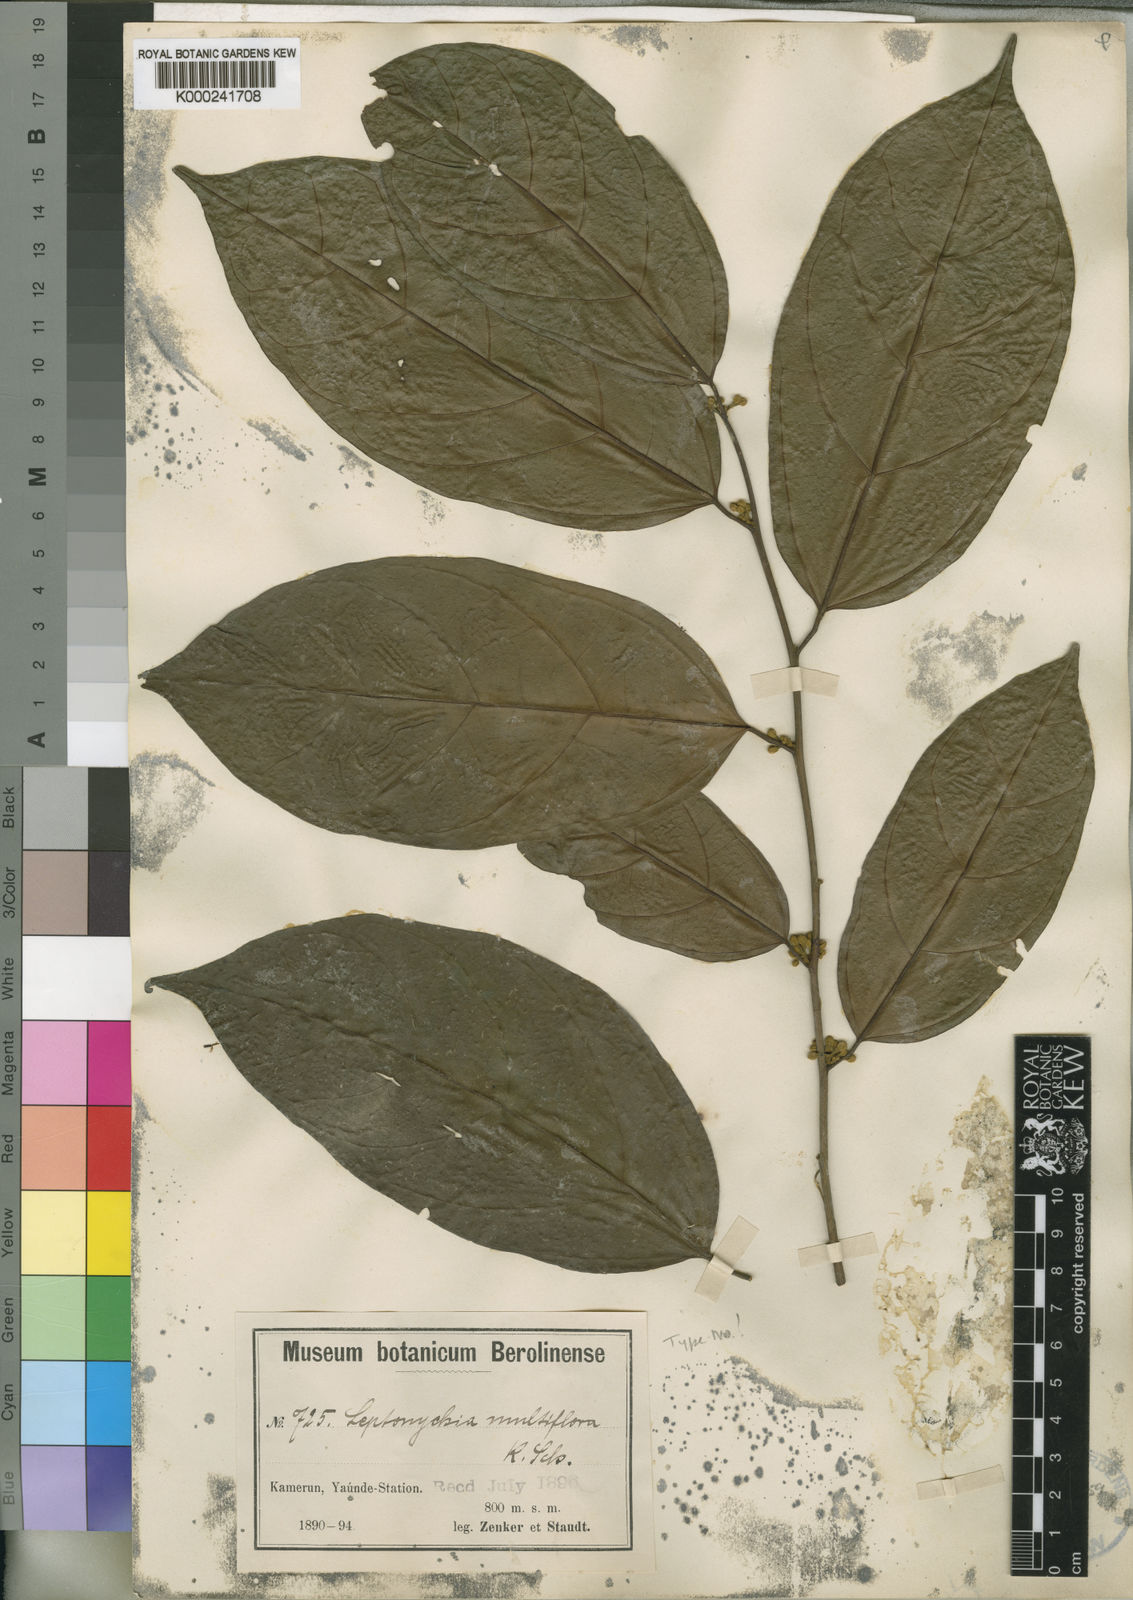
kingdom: Plantae
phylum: Tracheophyta
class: Magnoliopsida
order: Malvales
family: Malvaceae
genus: Leptonychia
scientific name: Leptonychia multiflora
